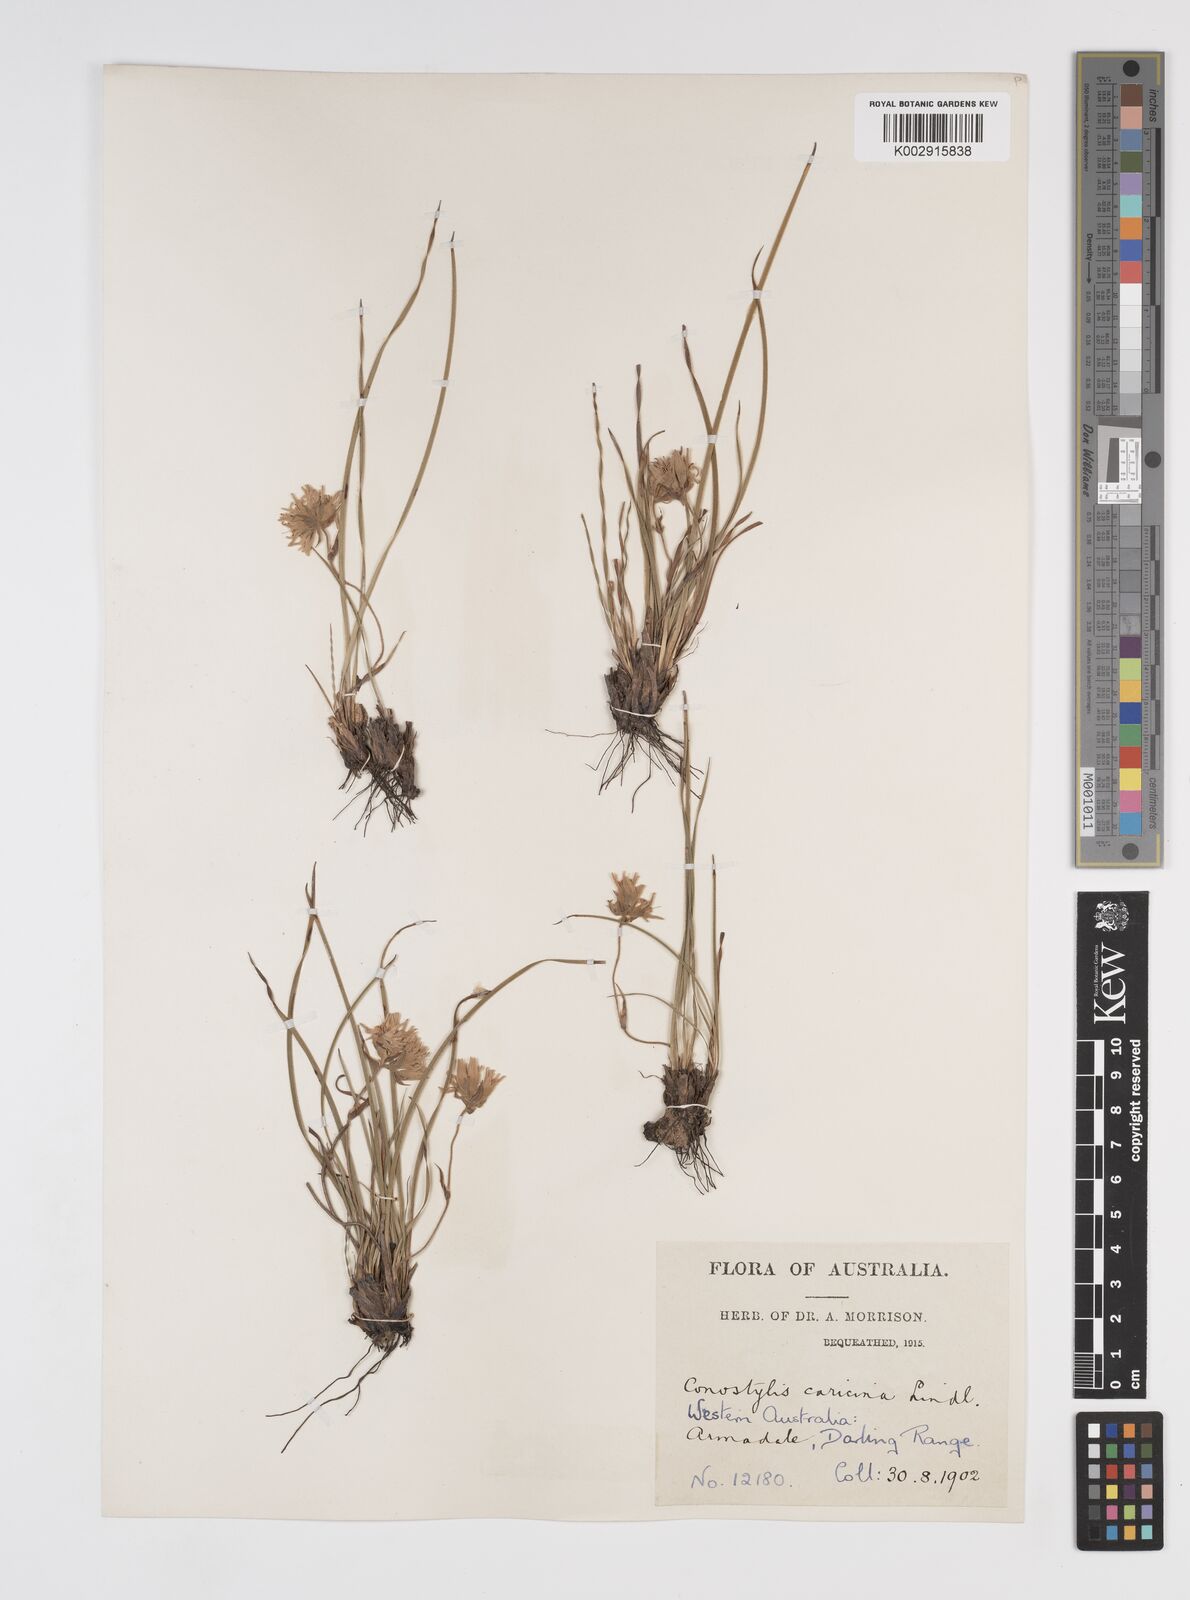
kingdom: Plantae
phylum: Tracheophyta
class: Liliopsida
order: Commelinales
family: Haemodoraceae
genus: Conostylis
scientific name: Conostylis caricina
